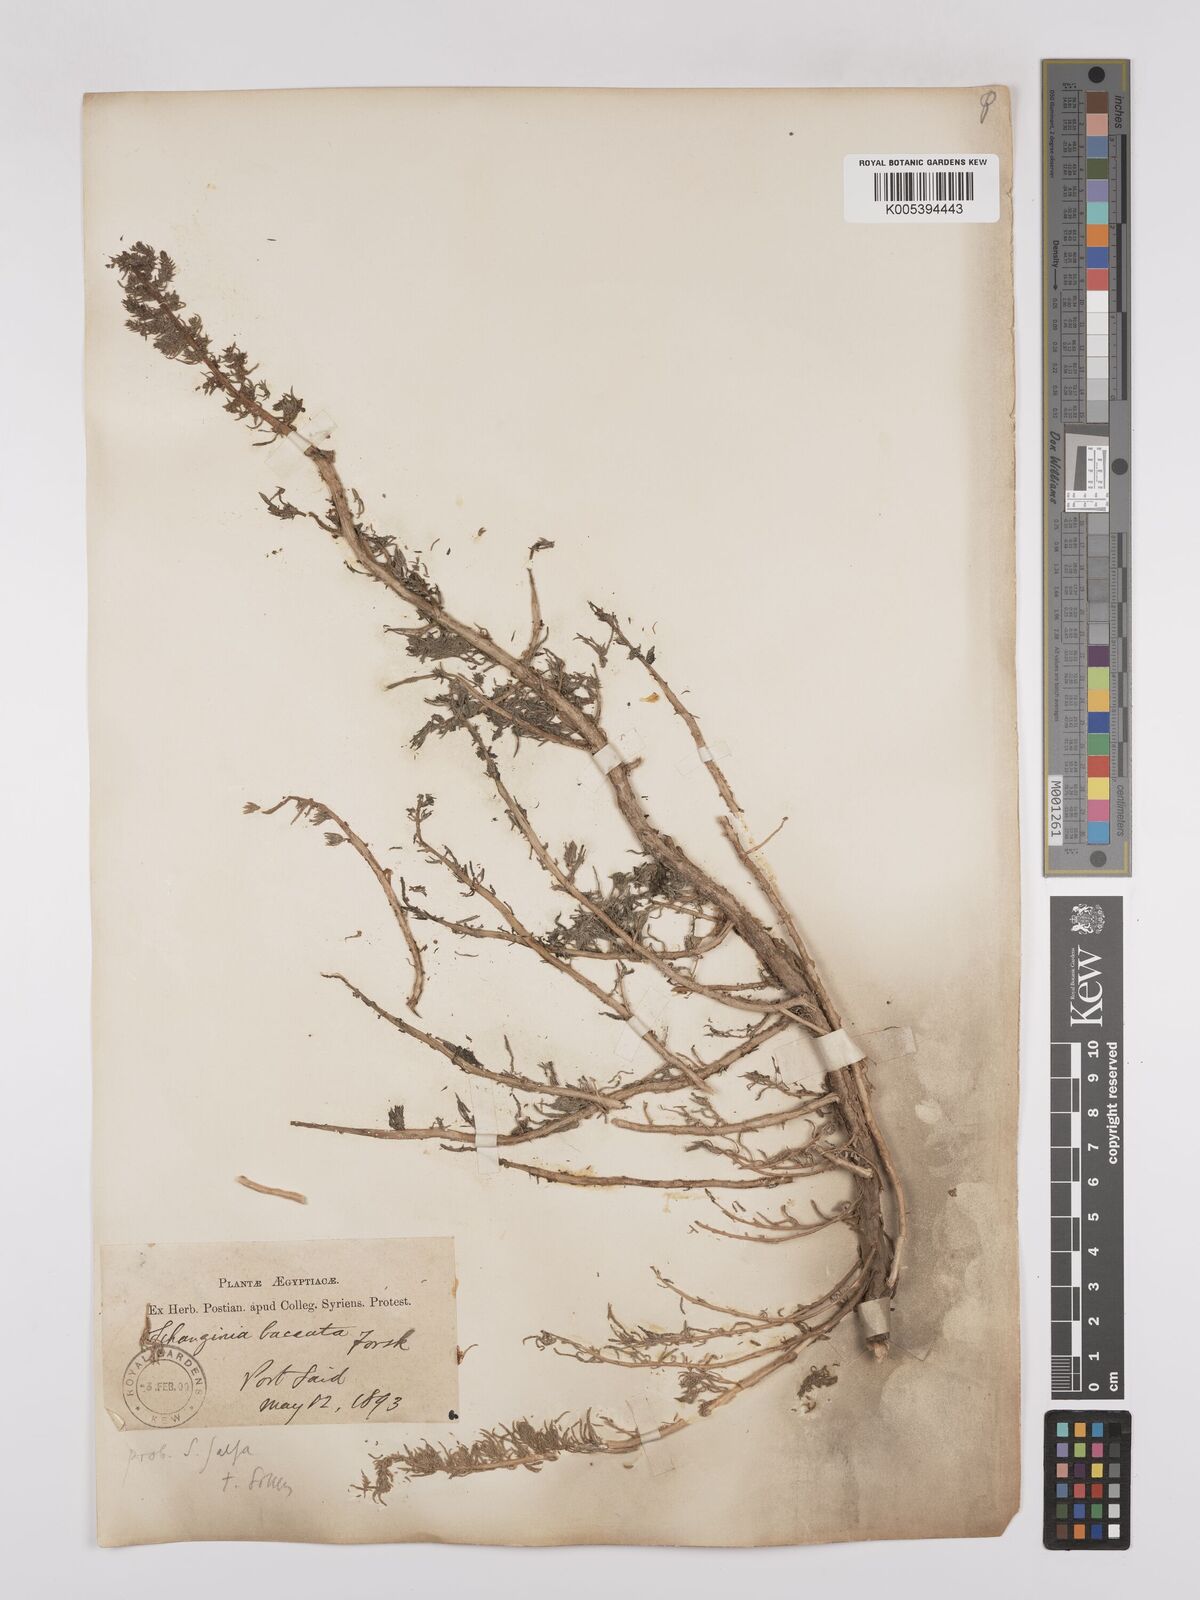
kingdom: Plantae
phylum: Tracheophyta
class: Magnoliopsida
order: Caryophyllales
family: Amaranthaceae
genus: Suaeda
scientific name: Suaeda aegyptiaca
